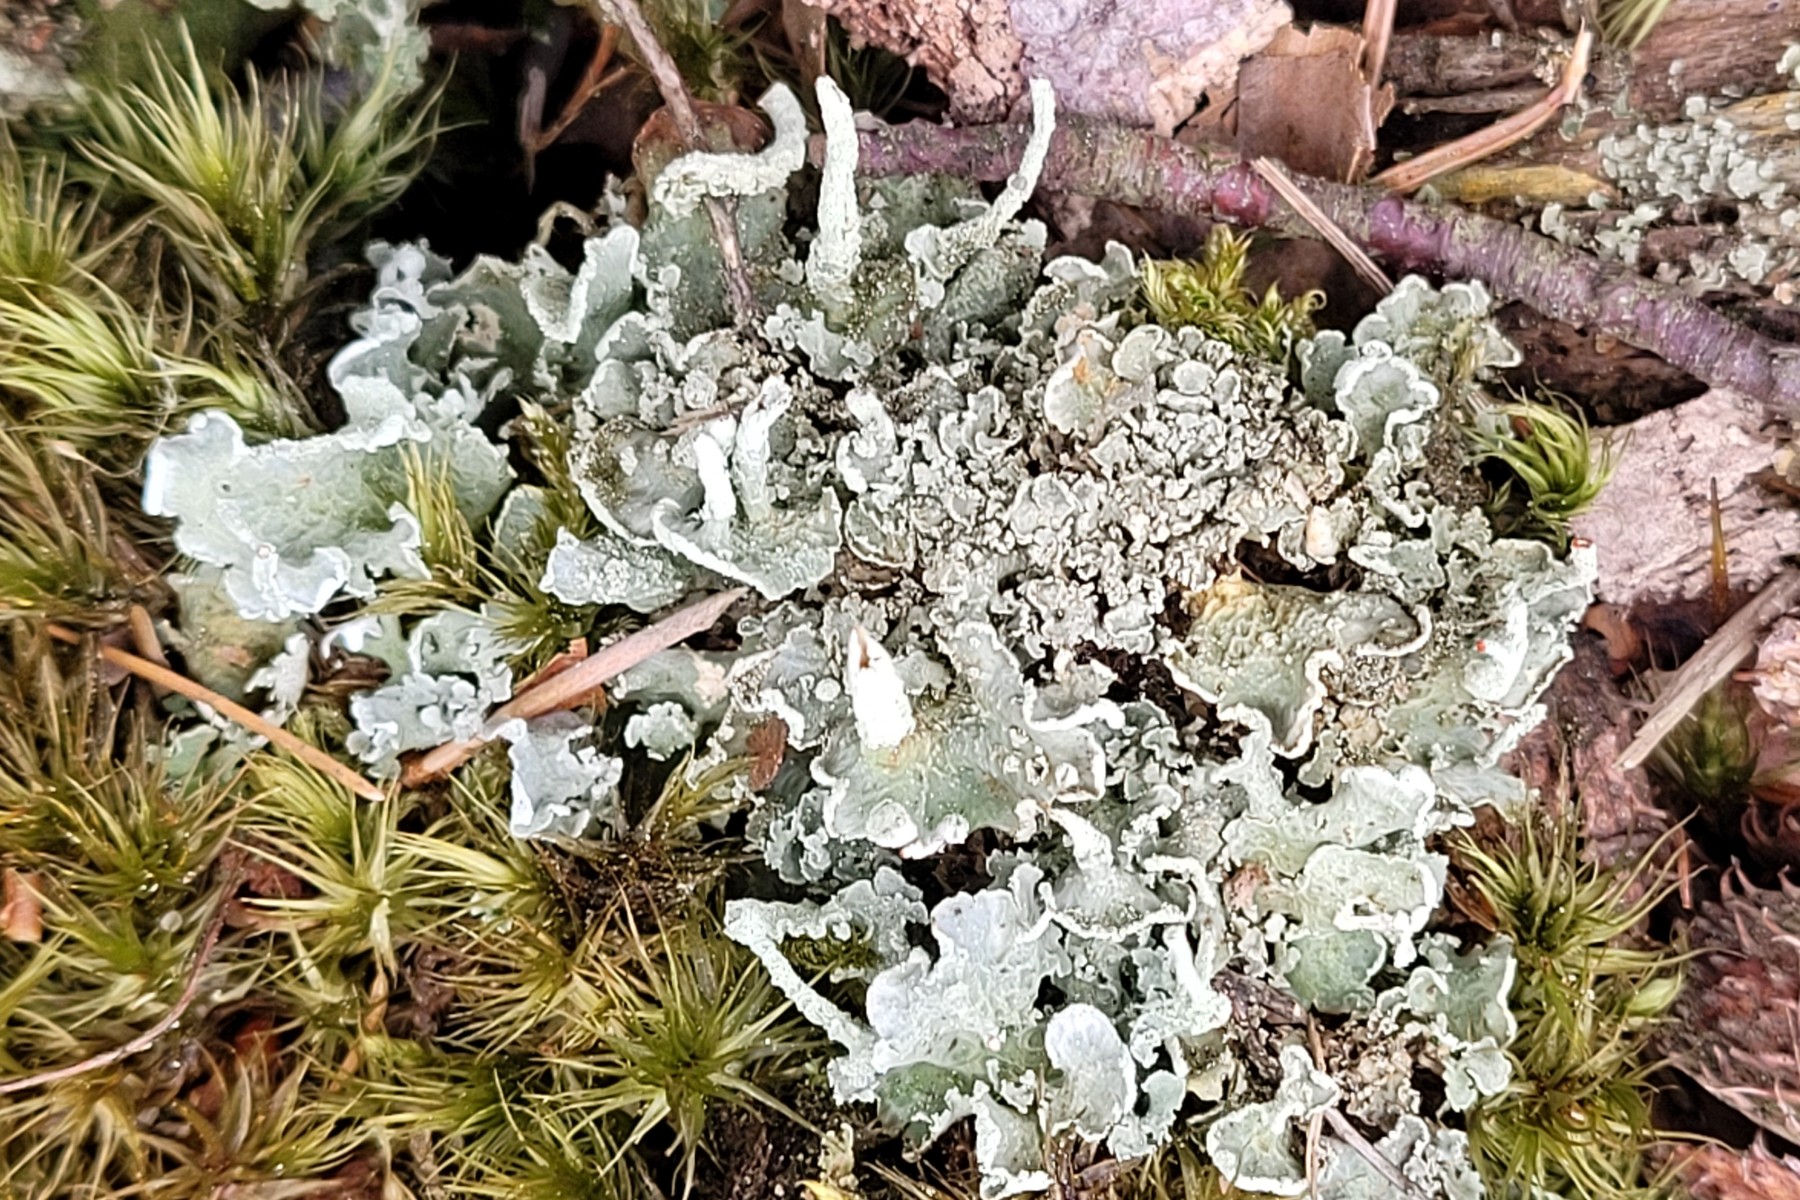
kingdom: Fungi
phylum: Ascomycota
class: Lecanoromycetes
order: Lecanorales
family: Cladoniaceae
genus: Cladonia
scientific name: Cladonia digitata
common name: finger-bægerlav
